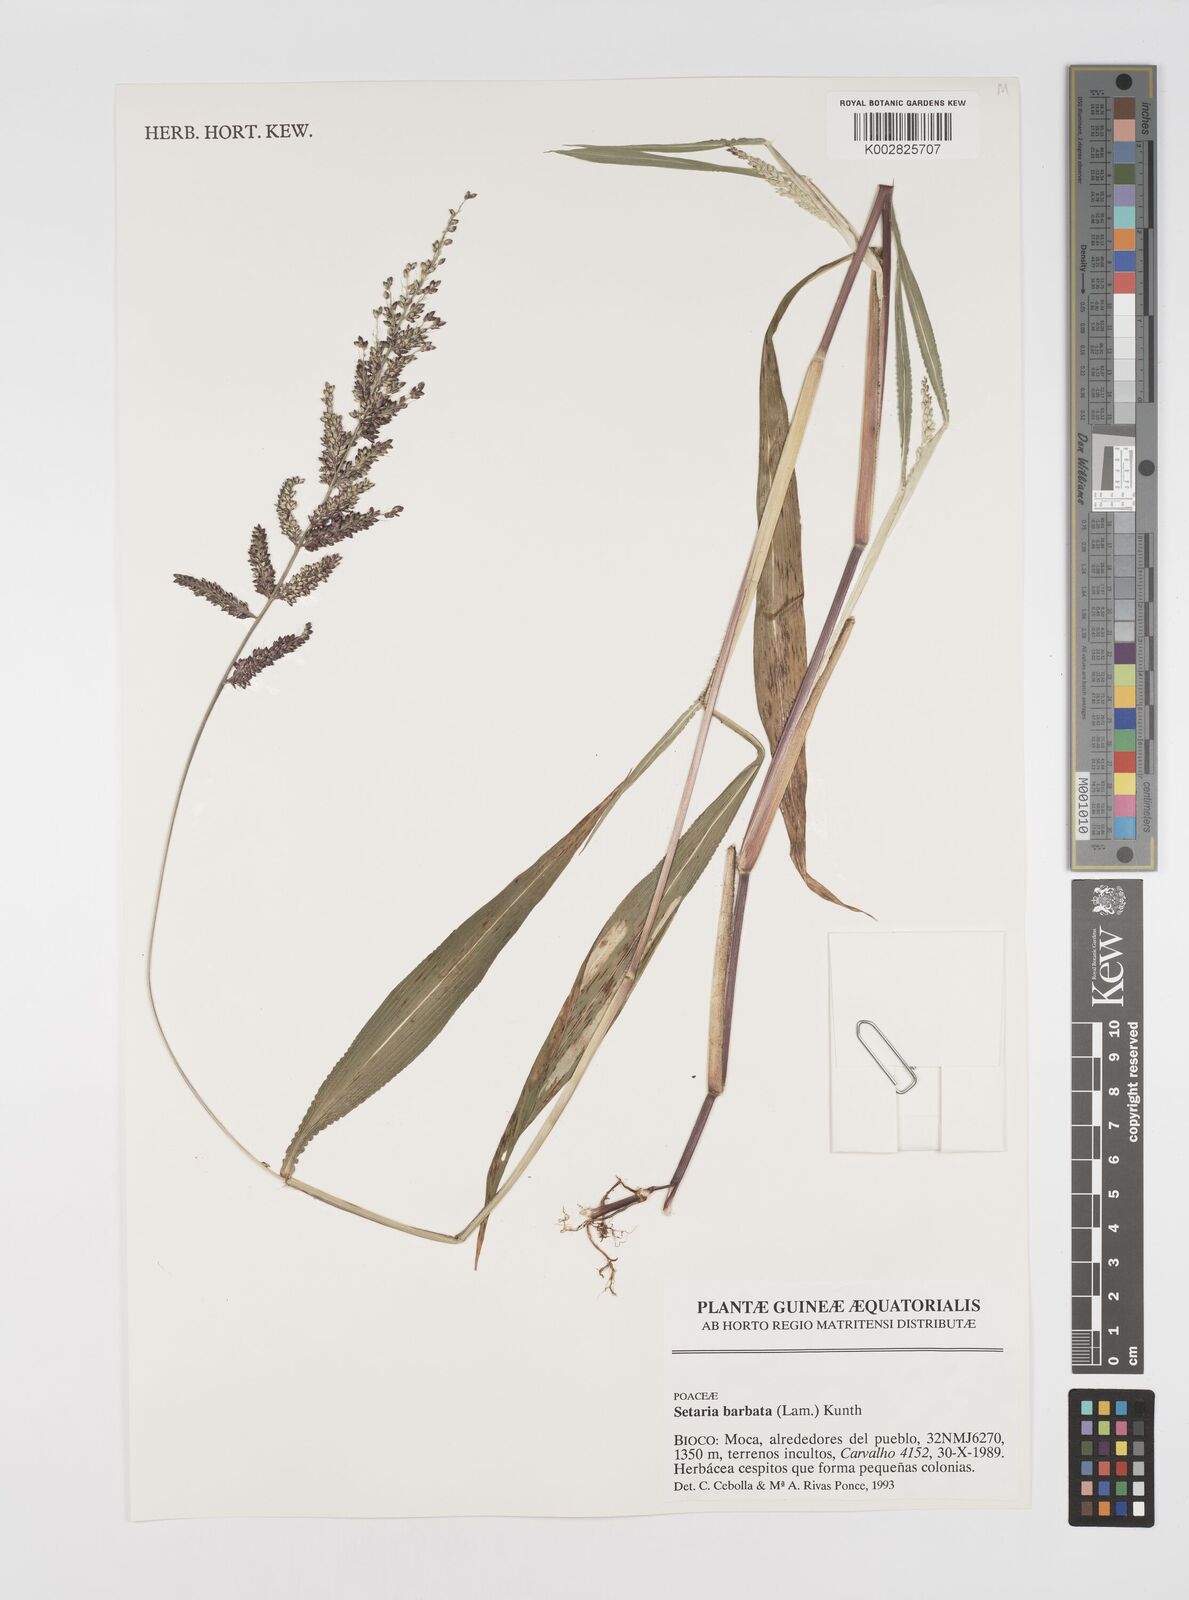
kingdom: Plantae
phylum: Tracheophyta
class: Liliopsida
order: Poales
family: Poaceae
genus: Setaria
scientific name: Setaria barbata
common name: East indian bristlegrass
